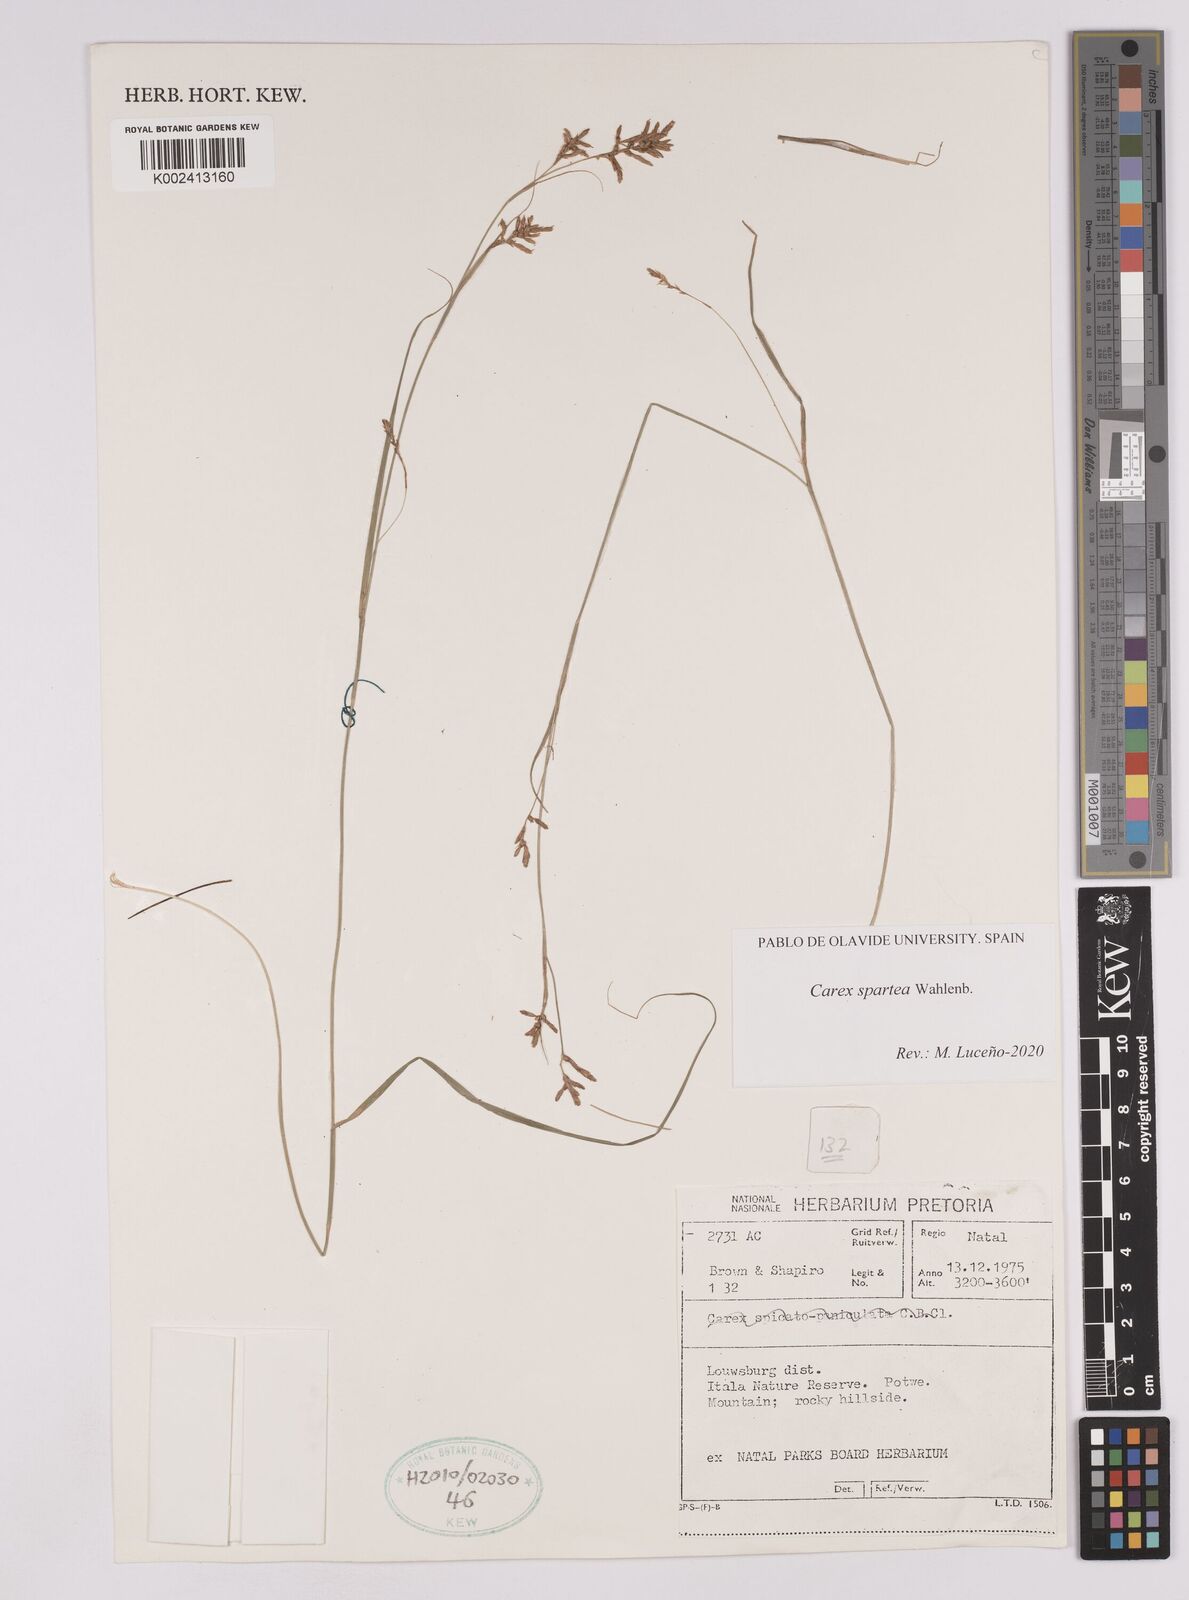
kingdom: Plantae
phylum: Tracheophyta
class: Liliopsida
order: Poales
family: Cyperaceae
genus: Carex
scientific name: Carex spartea
